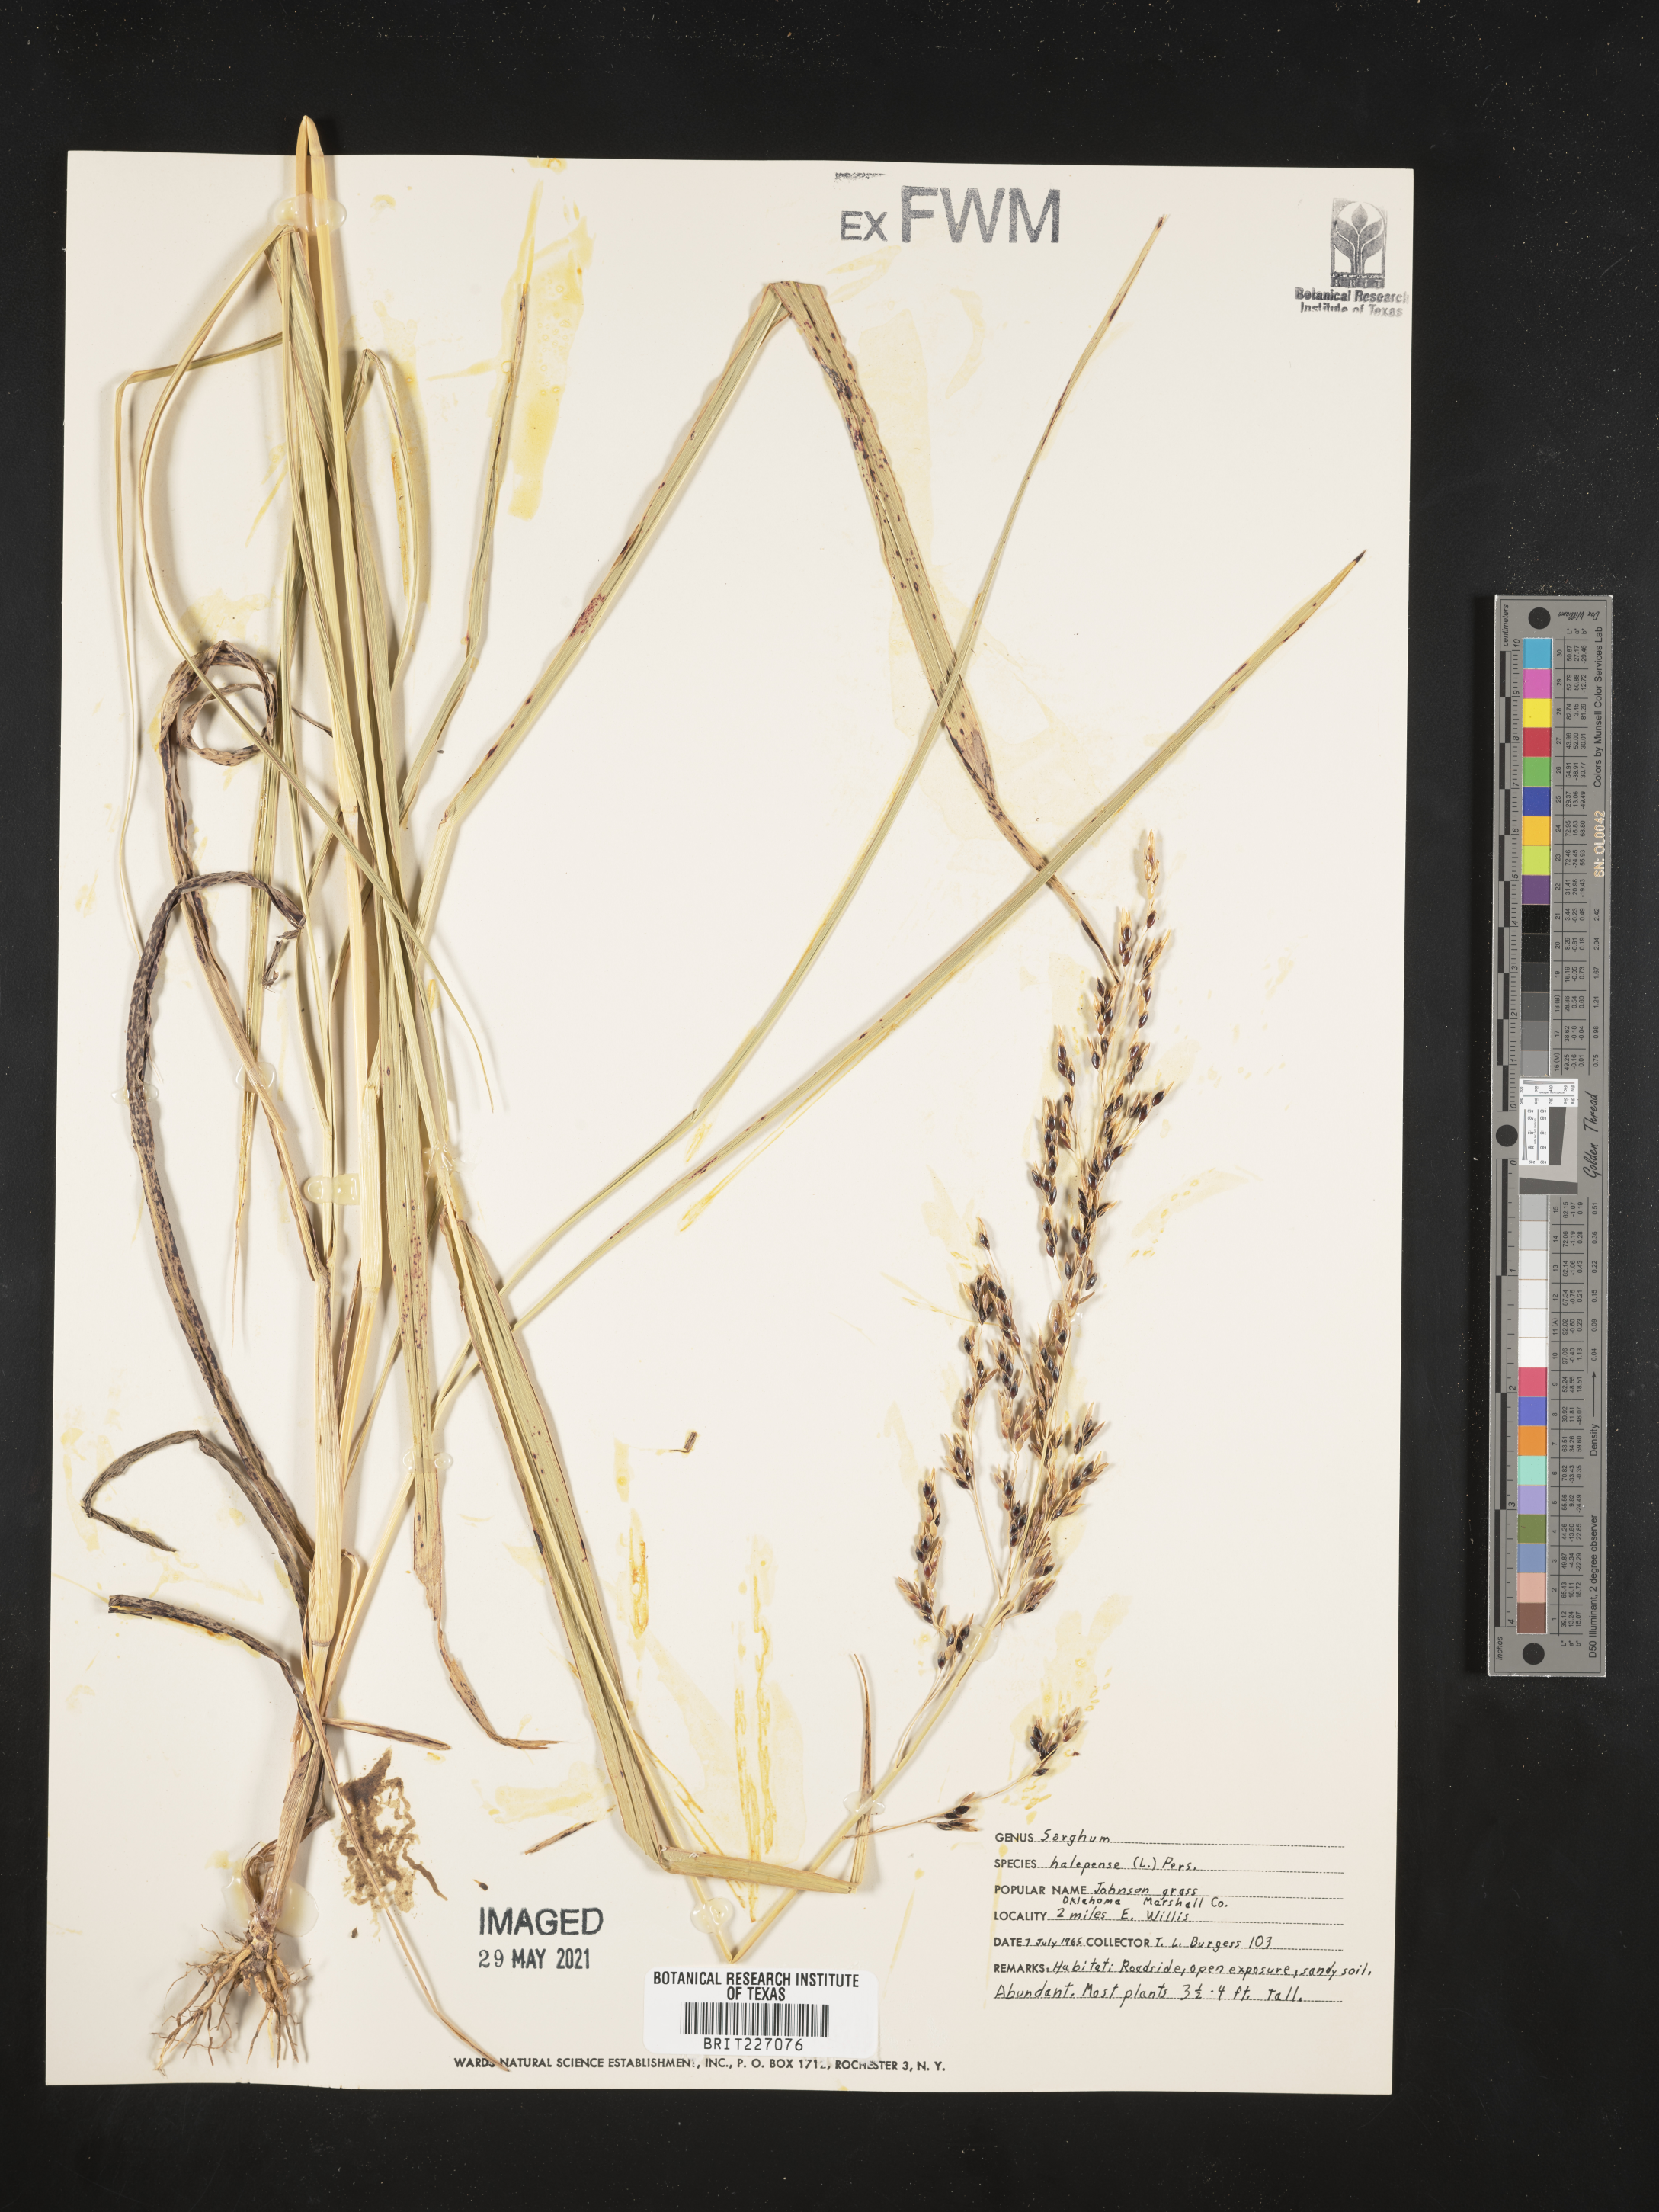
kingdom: Plantae
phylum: Tracheophyta
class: Liliopsida
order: Poales
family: Poaceae
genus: Sorghum
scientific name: Sorghum halepense
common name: Johnson-grass
